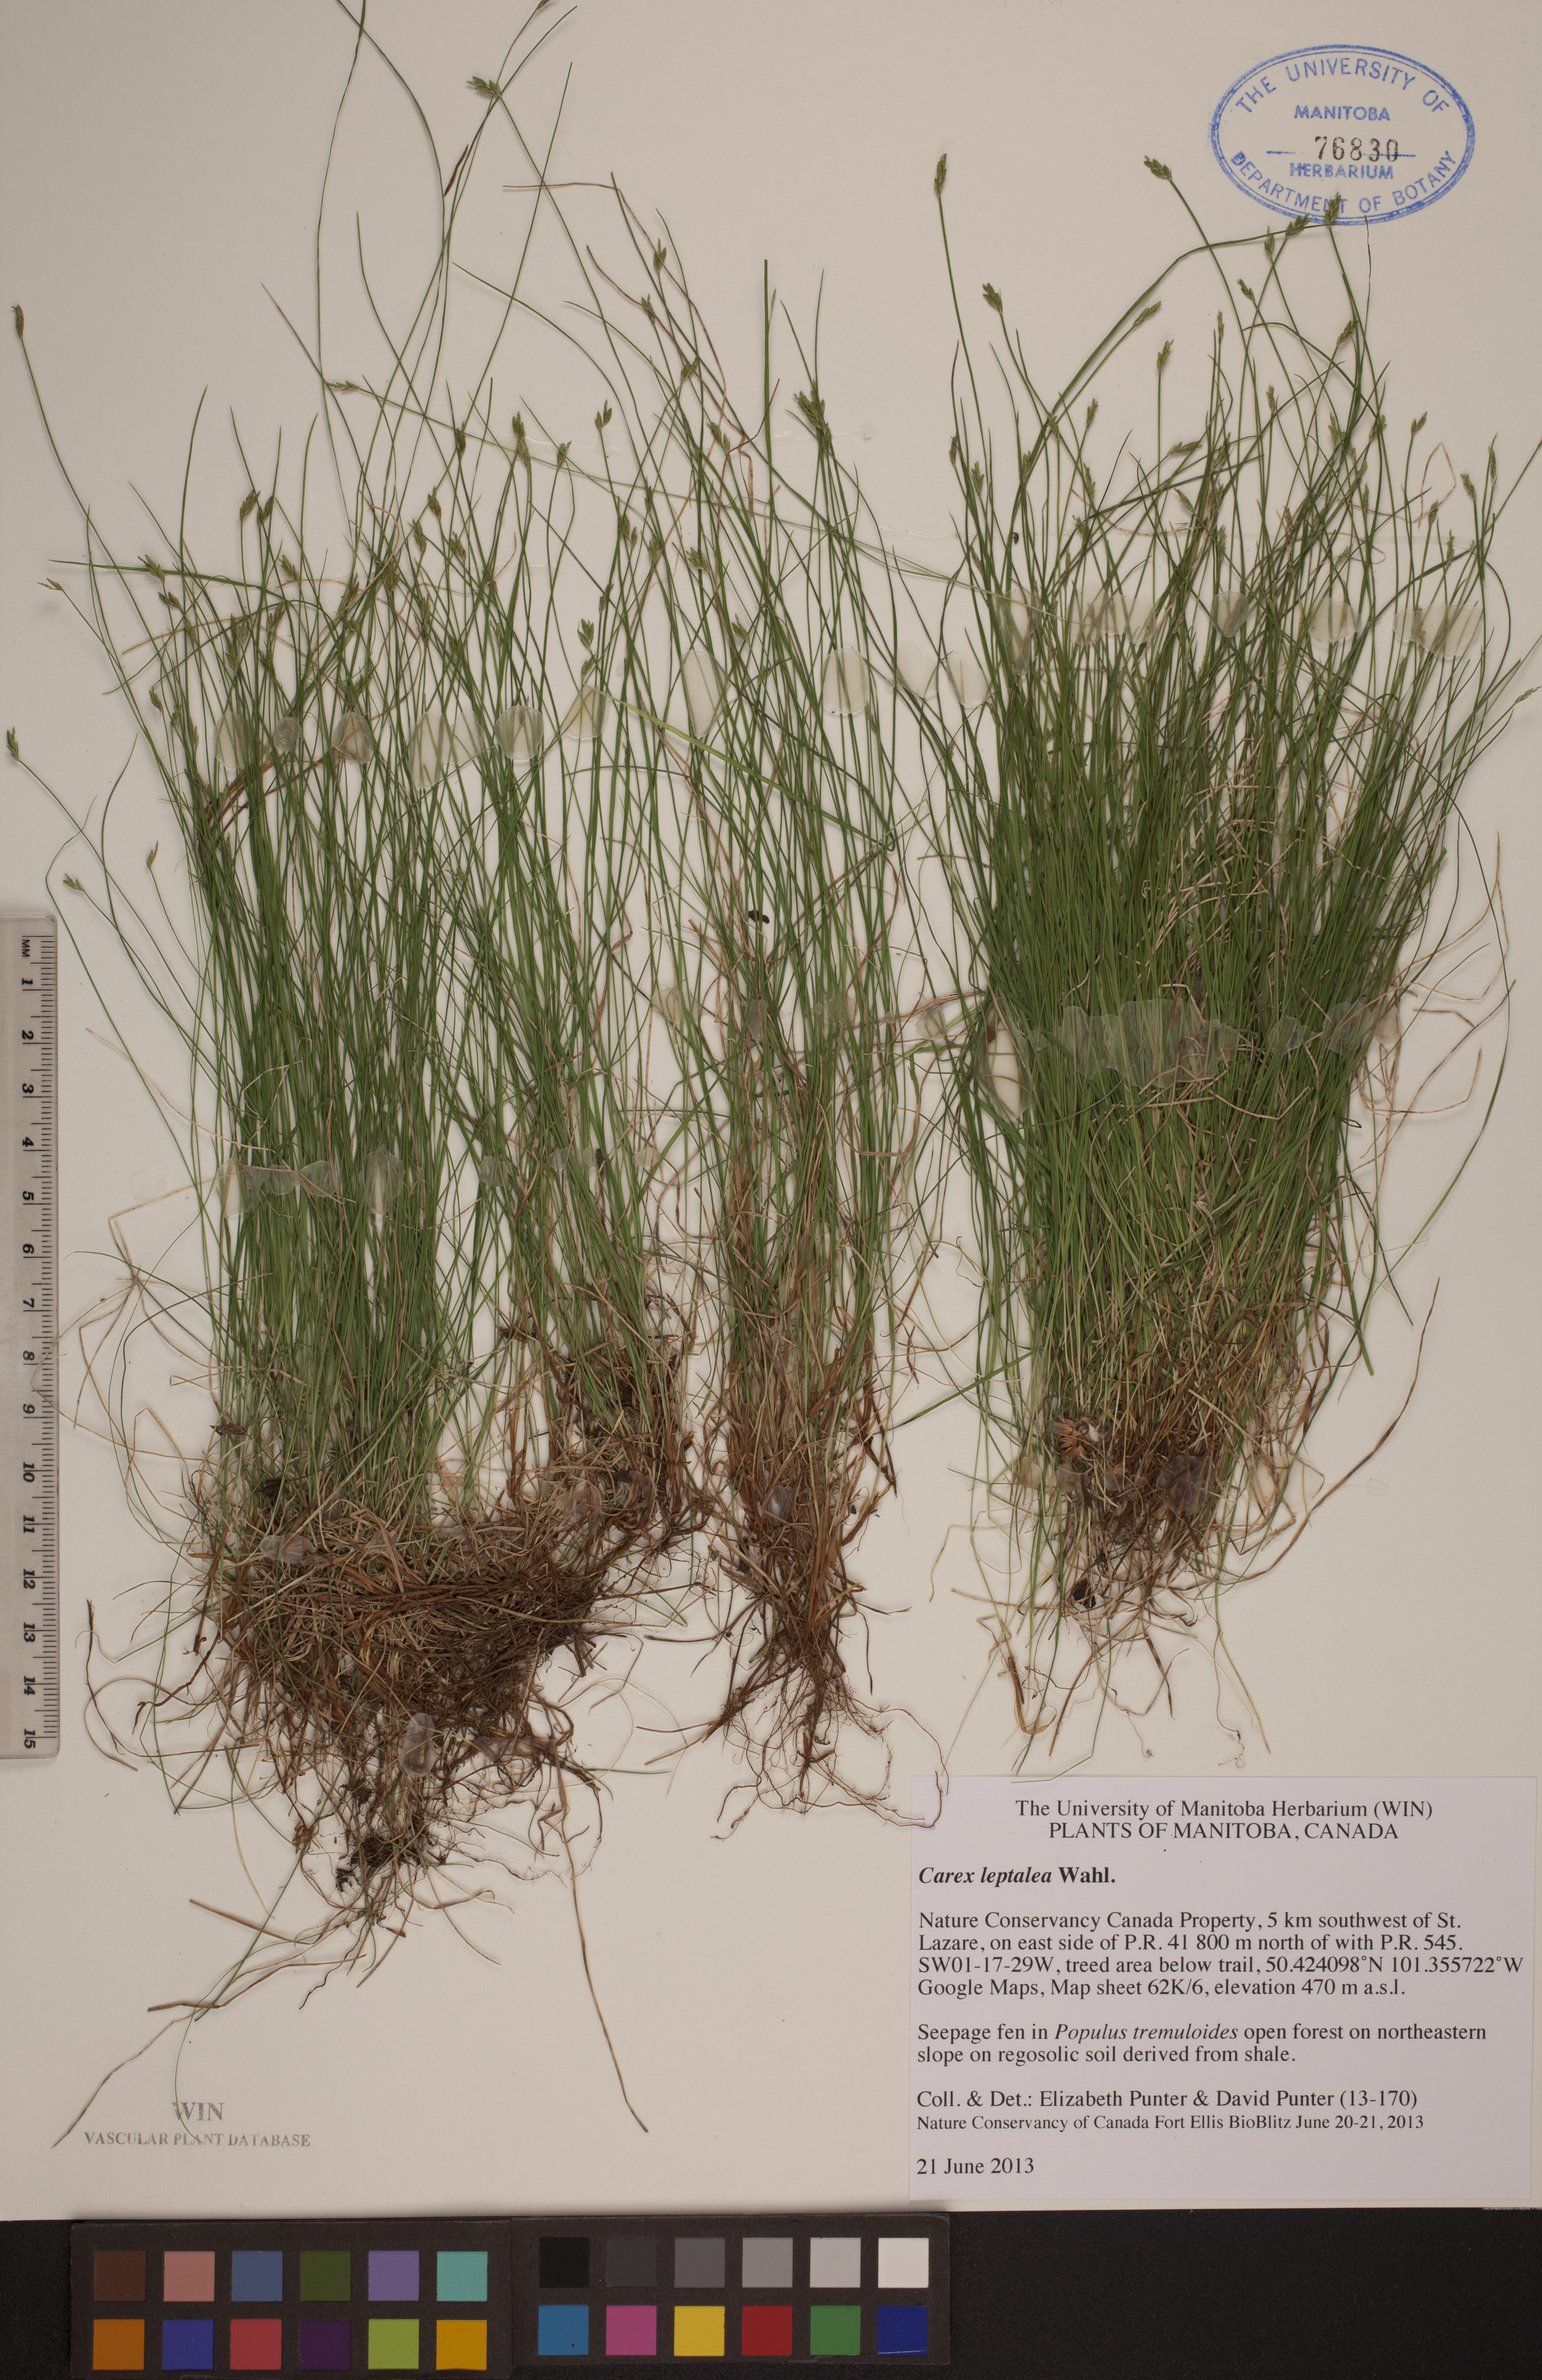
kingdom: Plantae
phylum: Tracheophyta
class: Liliopsida
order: Poales
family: Cyperaceae
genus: Carex
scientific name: Carex leptalea
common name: Bristly-stalked sedge
